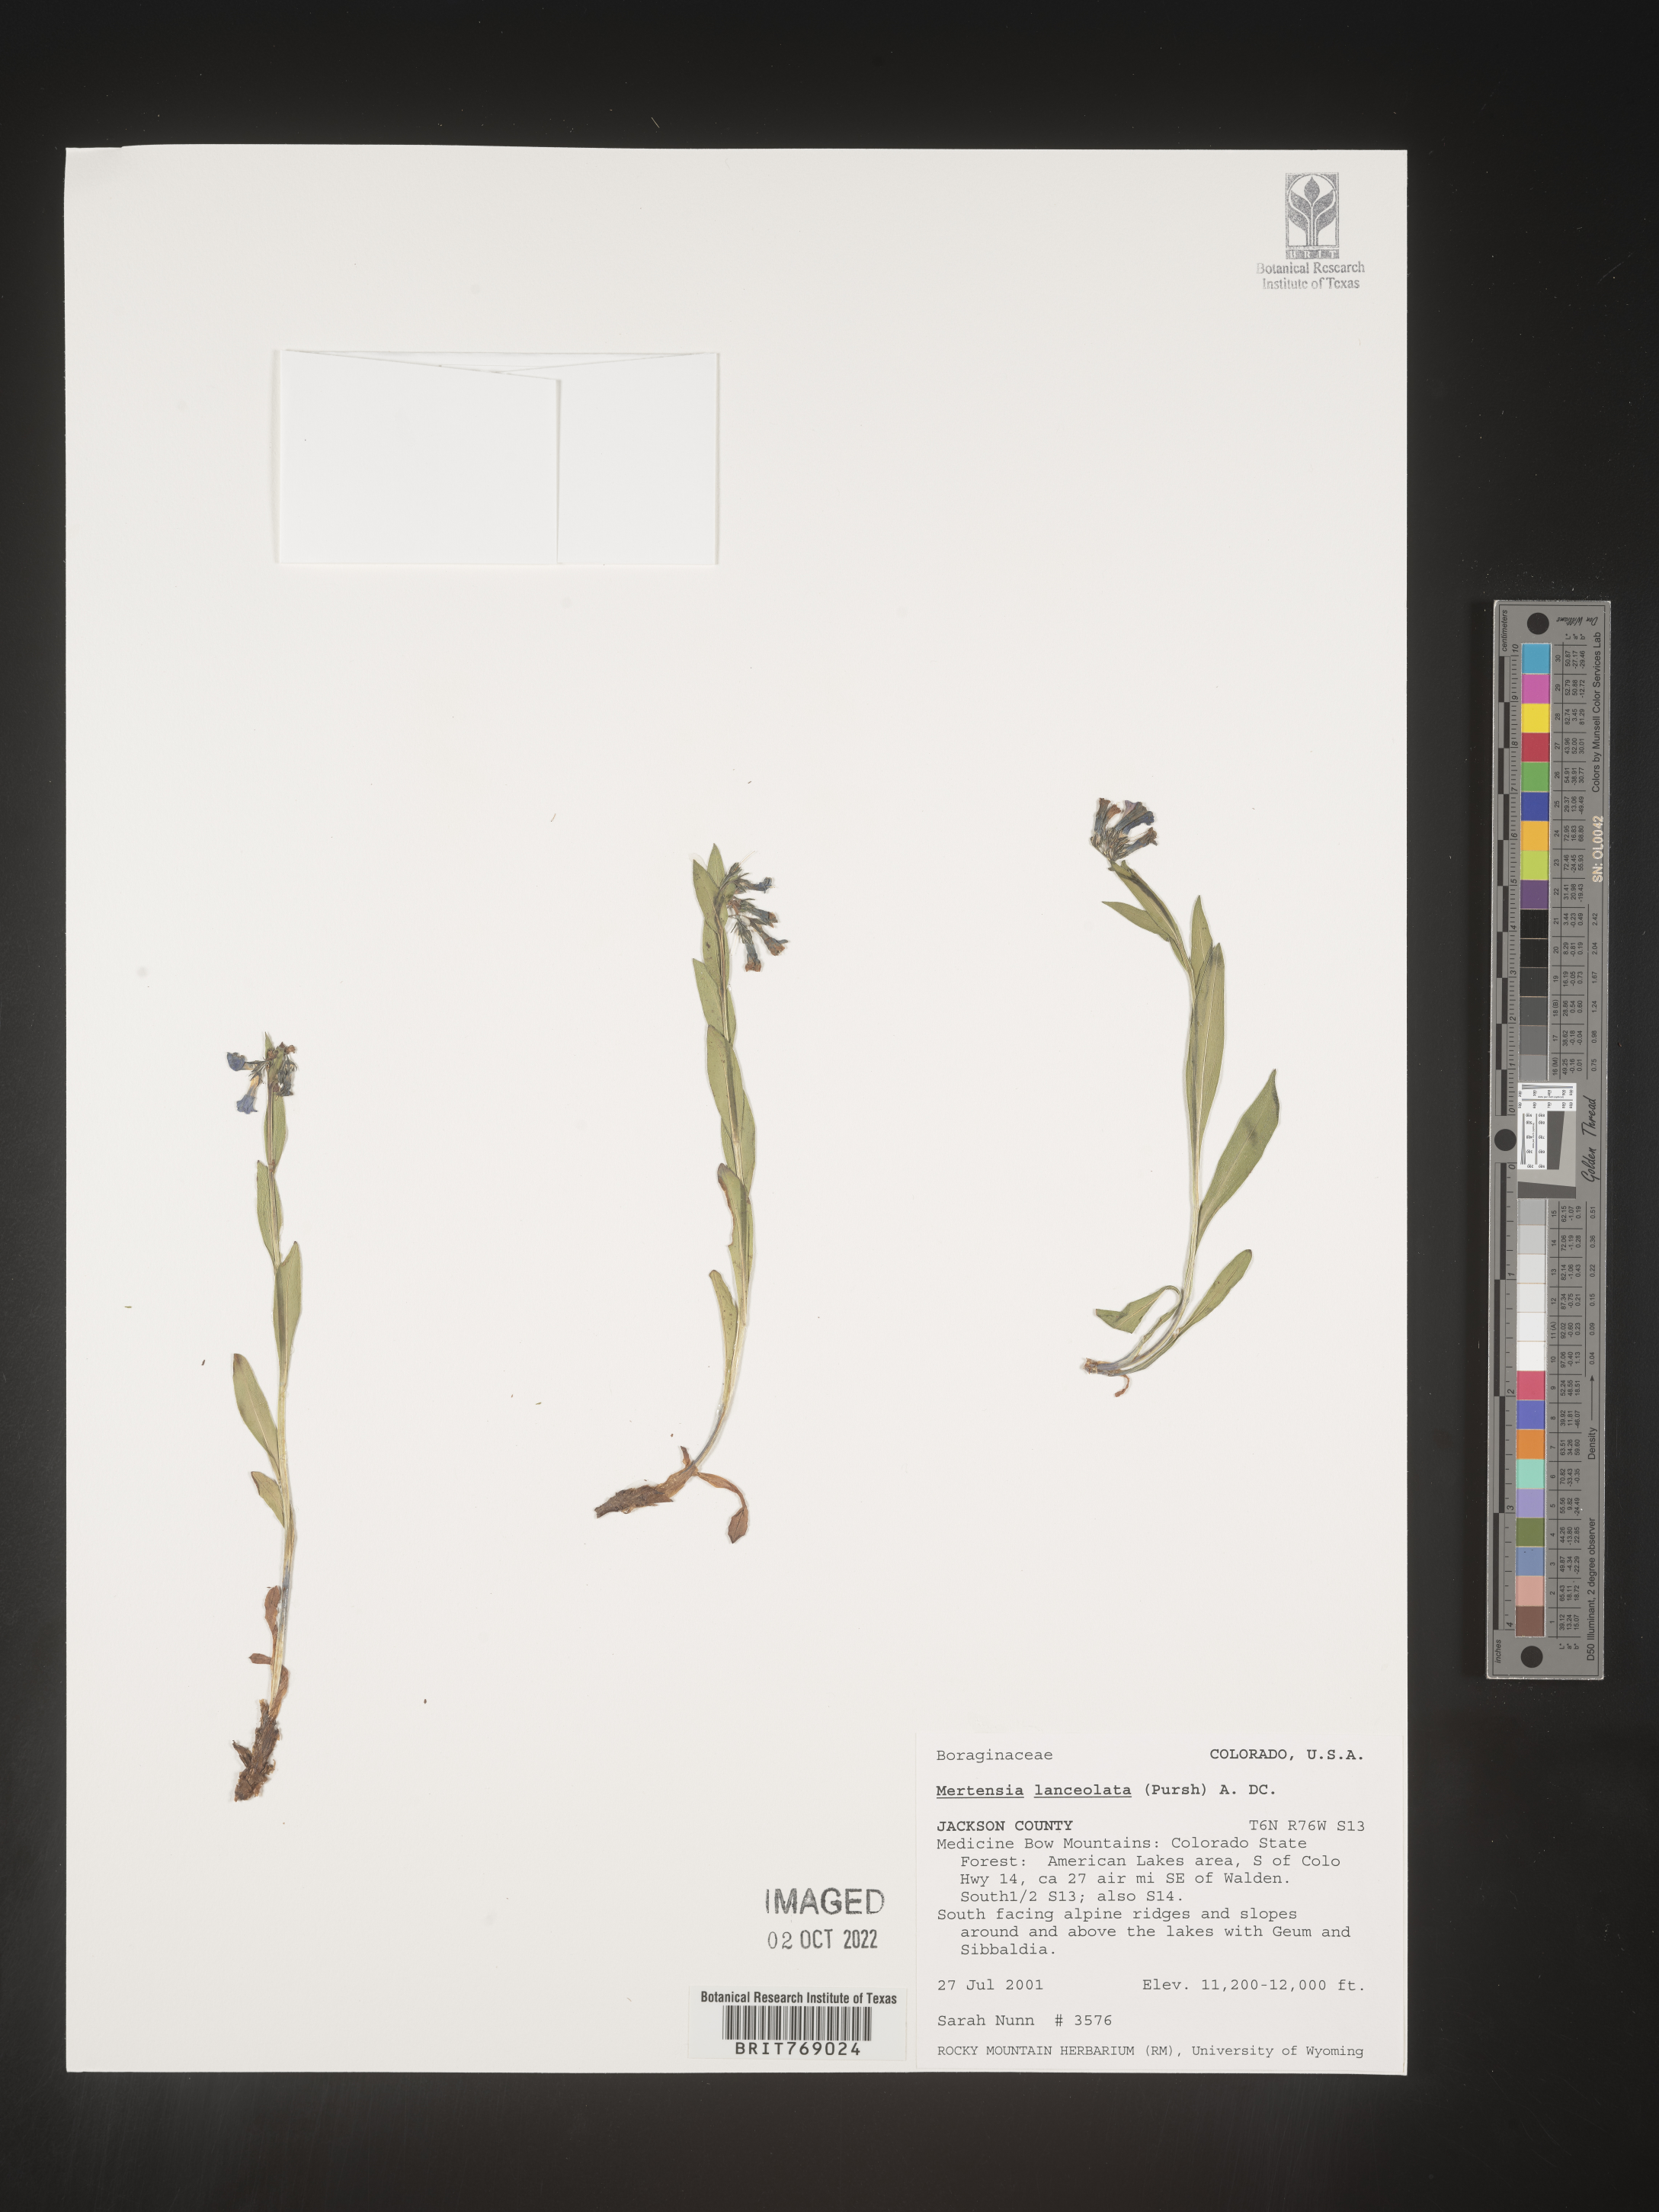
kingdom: Plantae
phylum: Tracheophyta
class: Magnoliopsida
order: Boraginales
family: Boraginaceae
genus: Mertensia
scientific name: Mertensia
